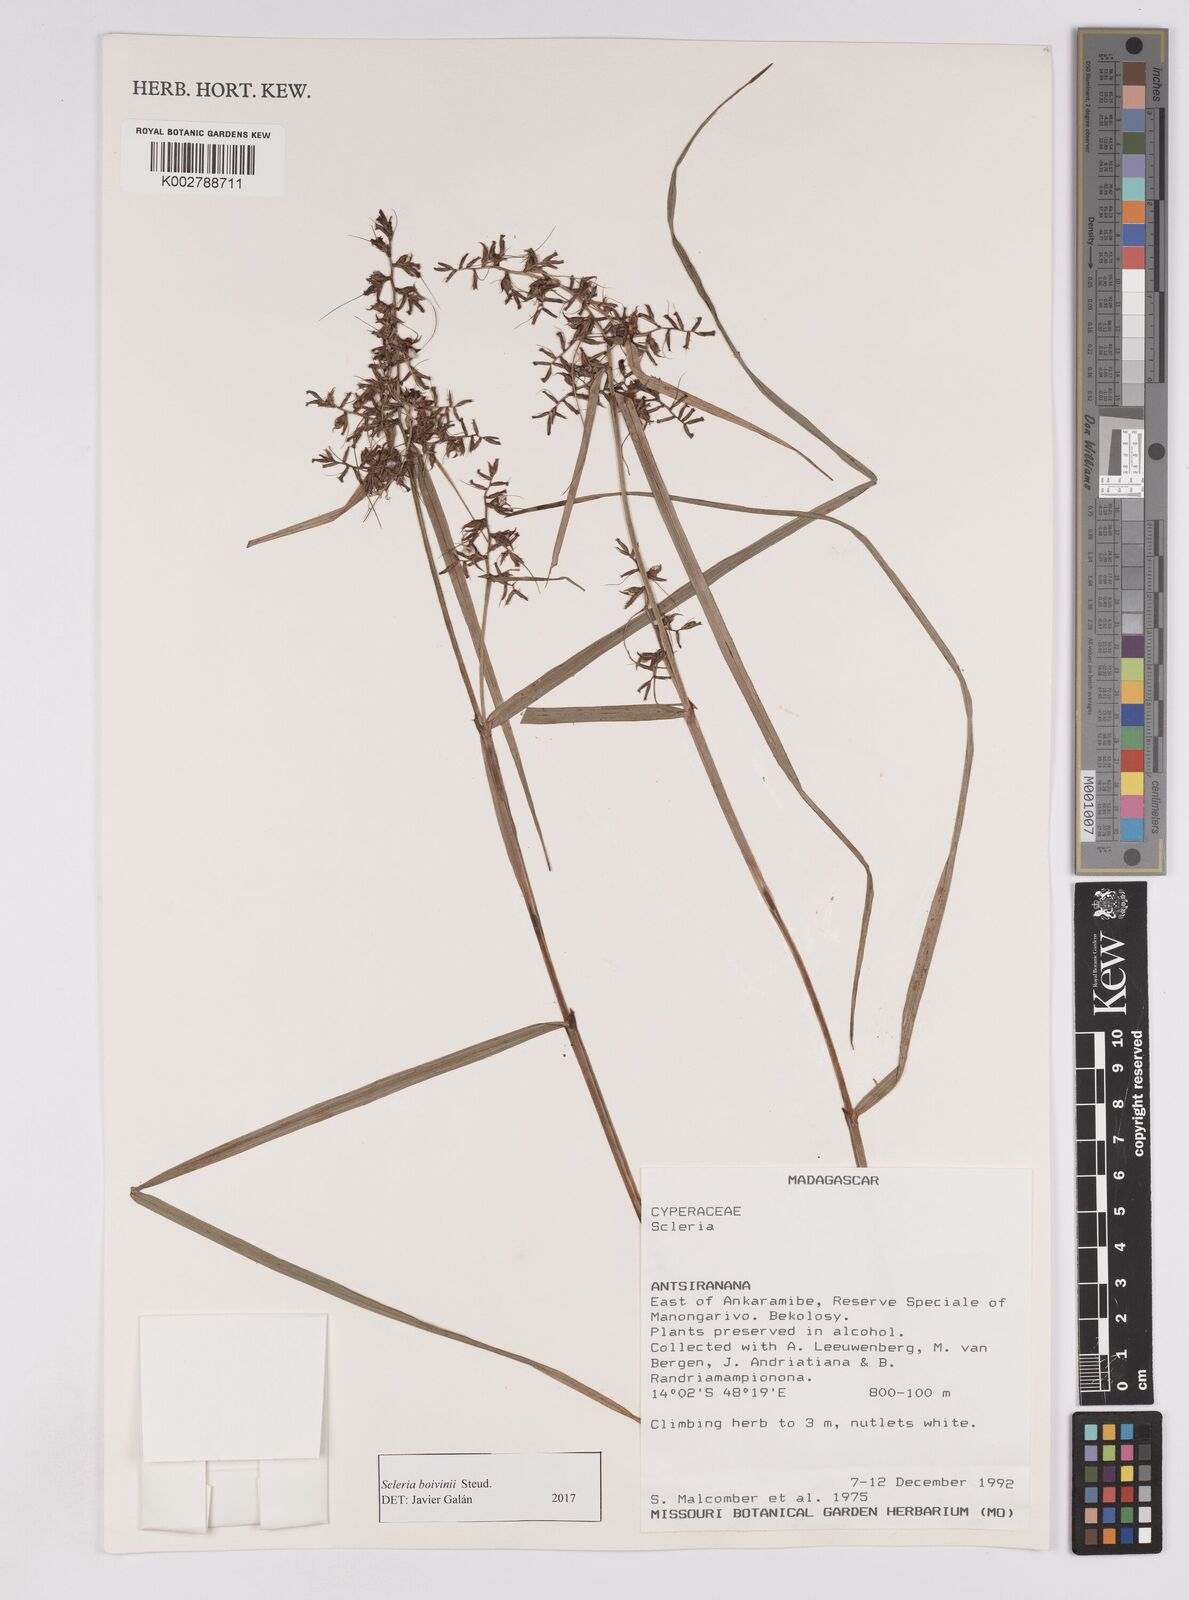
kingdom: Plantae
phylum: Tracheophyta
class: Liliopsida
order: Poales
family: Cyperaceae
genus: Scleria
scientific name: Scleria boivinii
